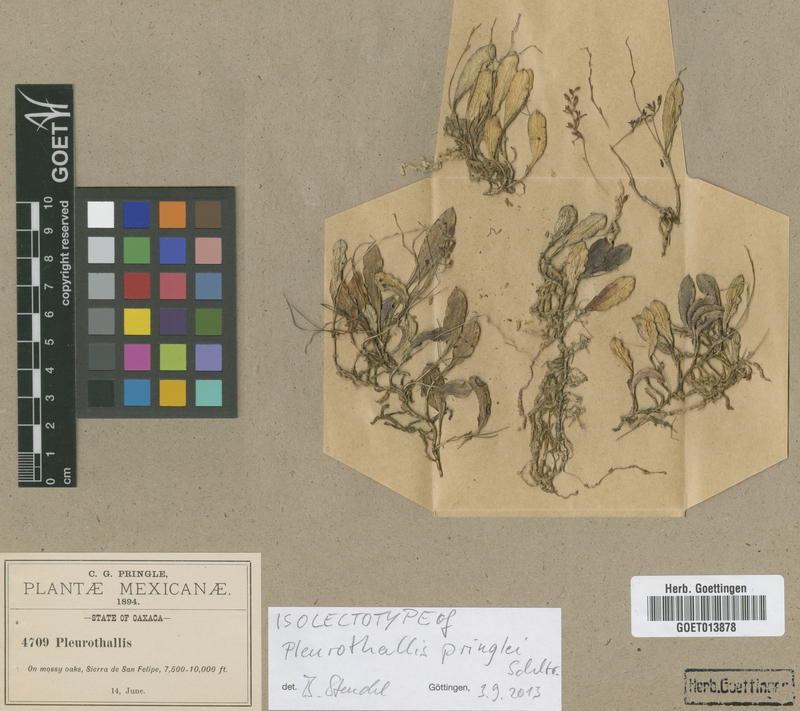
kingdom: Plantae
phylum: Tracheophyta
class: Liliopsida
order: Asparagales
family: Orchidaceae
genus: Trichosalpinx
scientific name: Trichosalpinx pringlei
